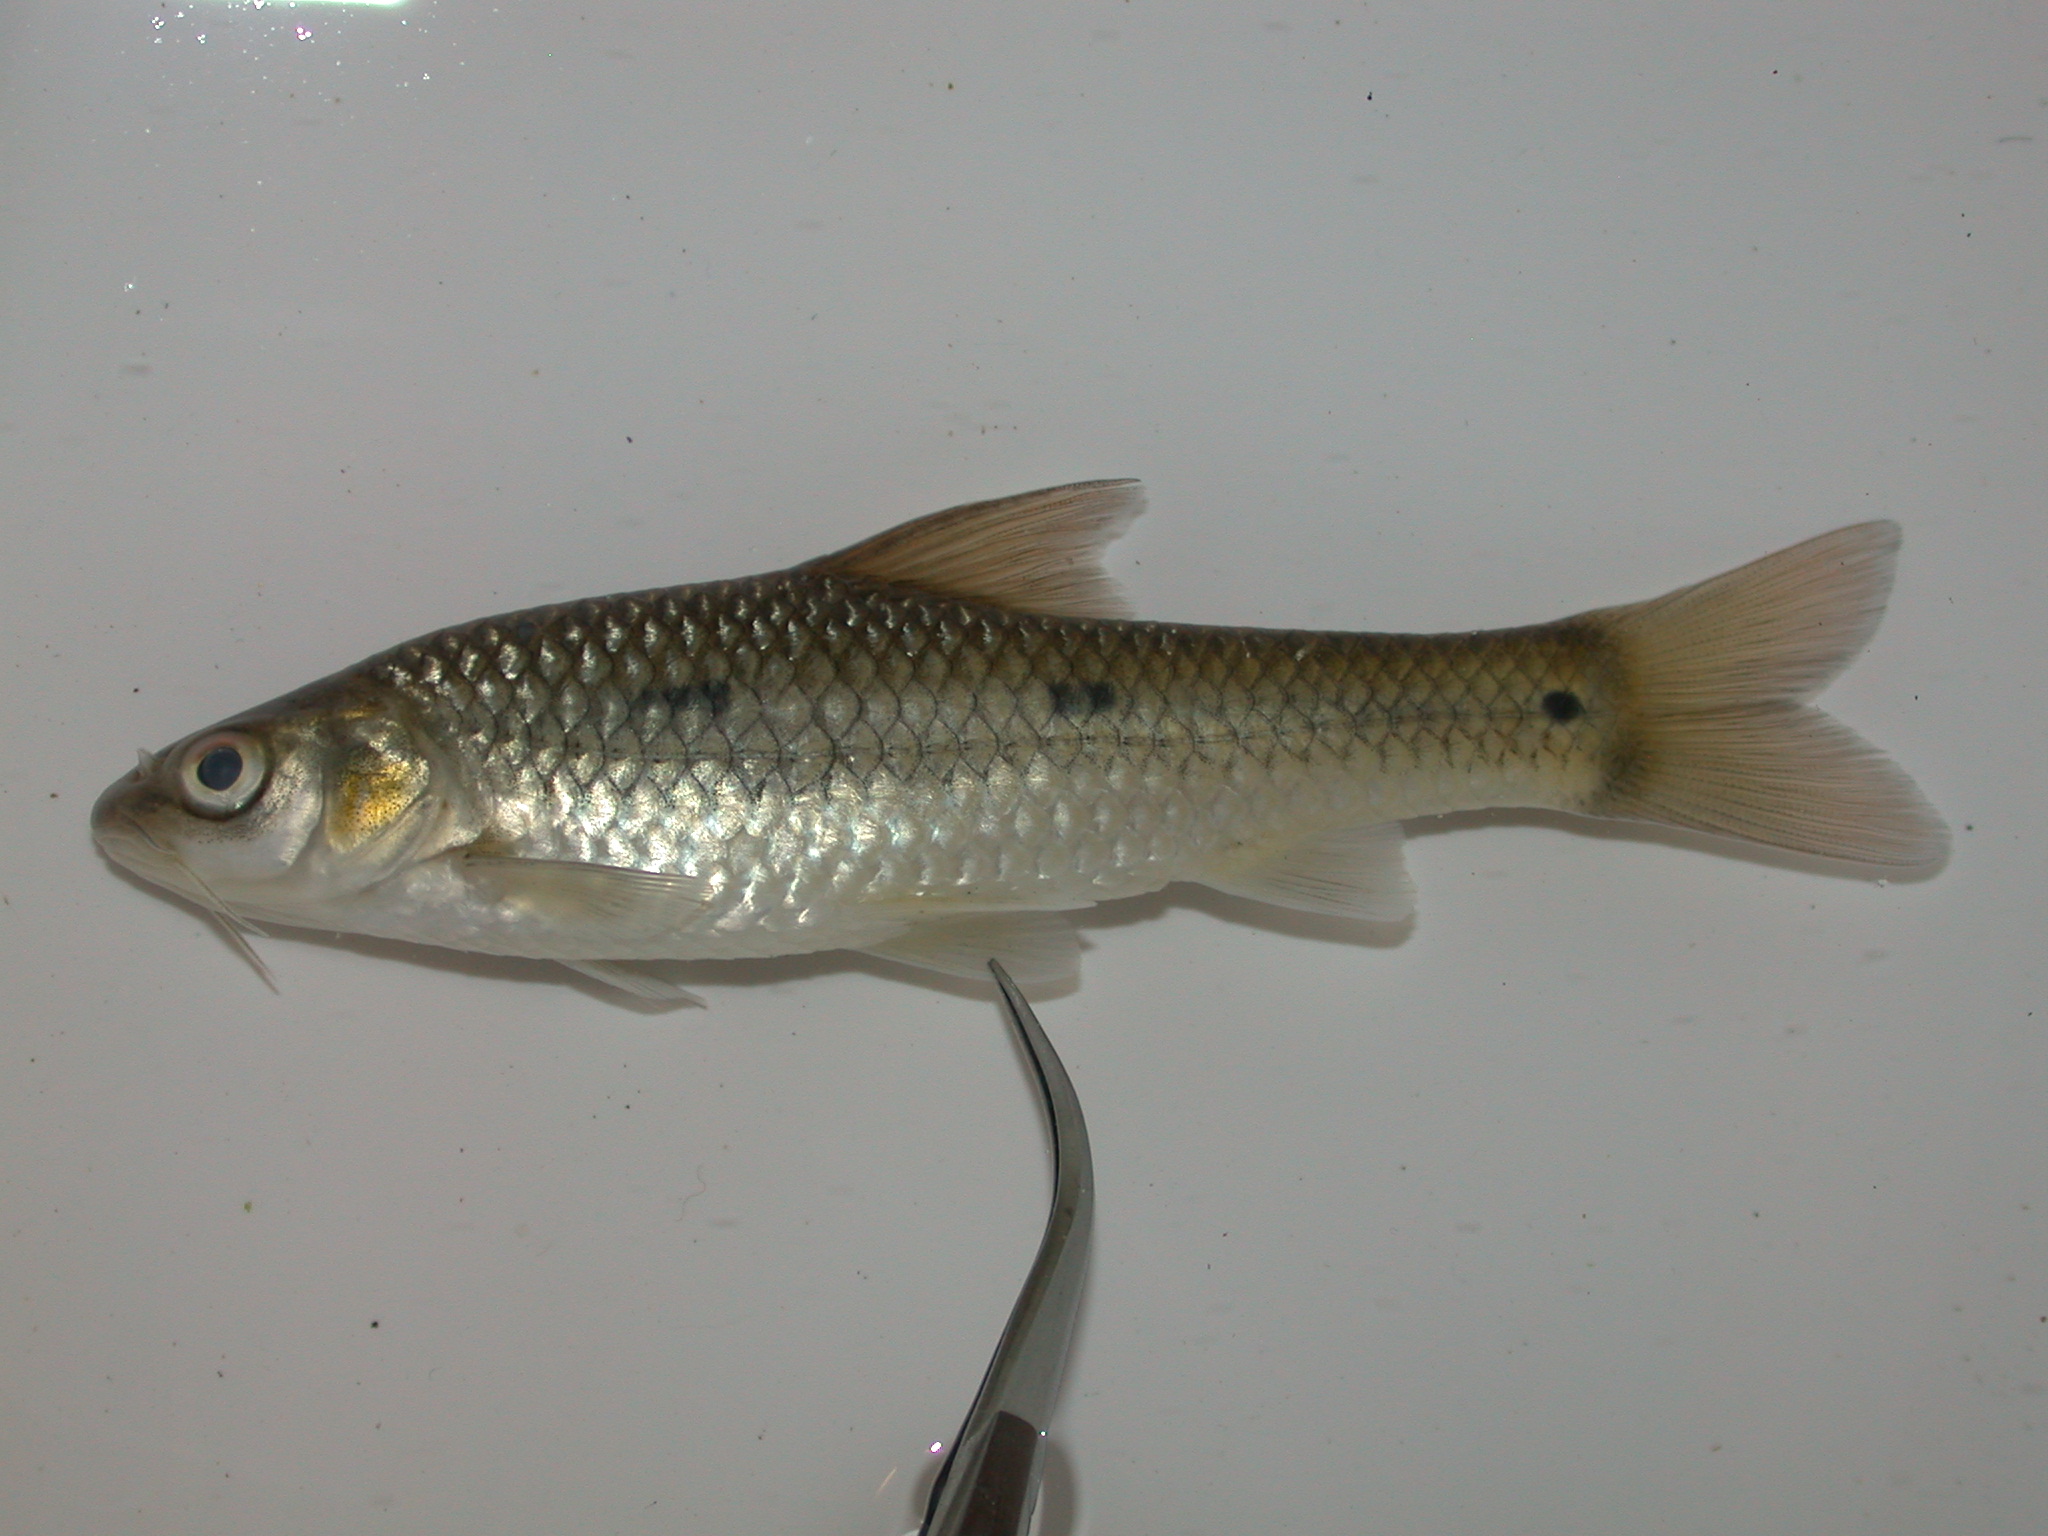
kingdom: Animalia
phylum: Chordata
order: Cypriniformes
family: Cyprinidae
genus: Enteromius
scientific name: Enteromius trimaculatus
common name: Threespot barb
